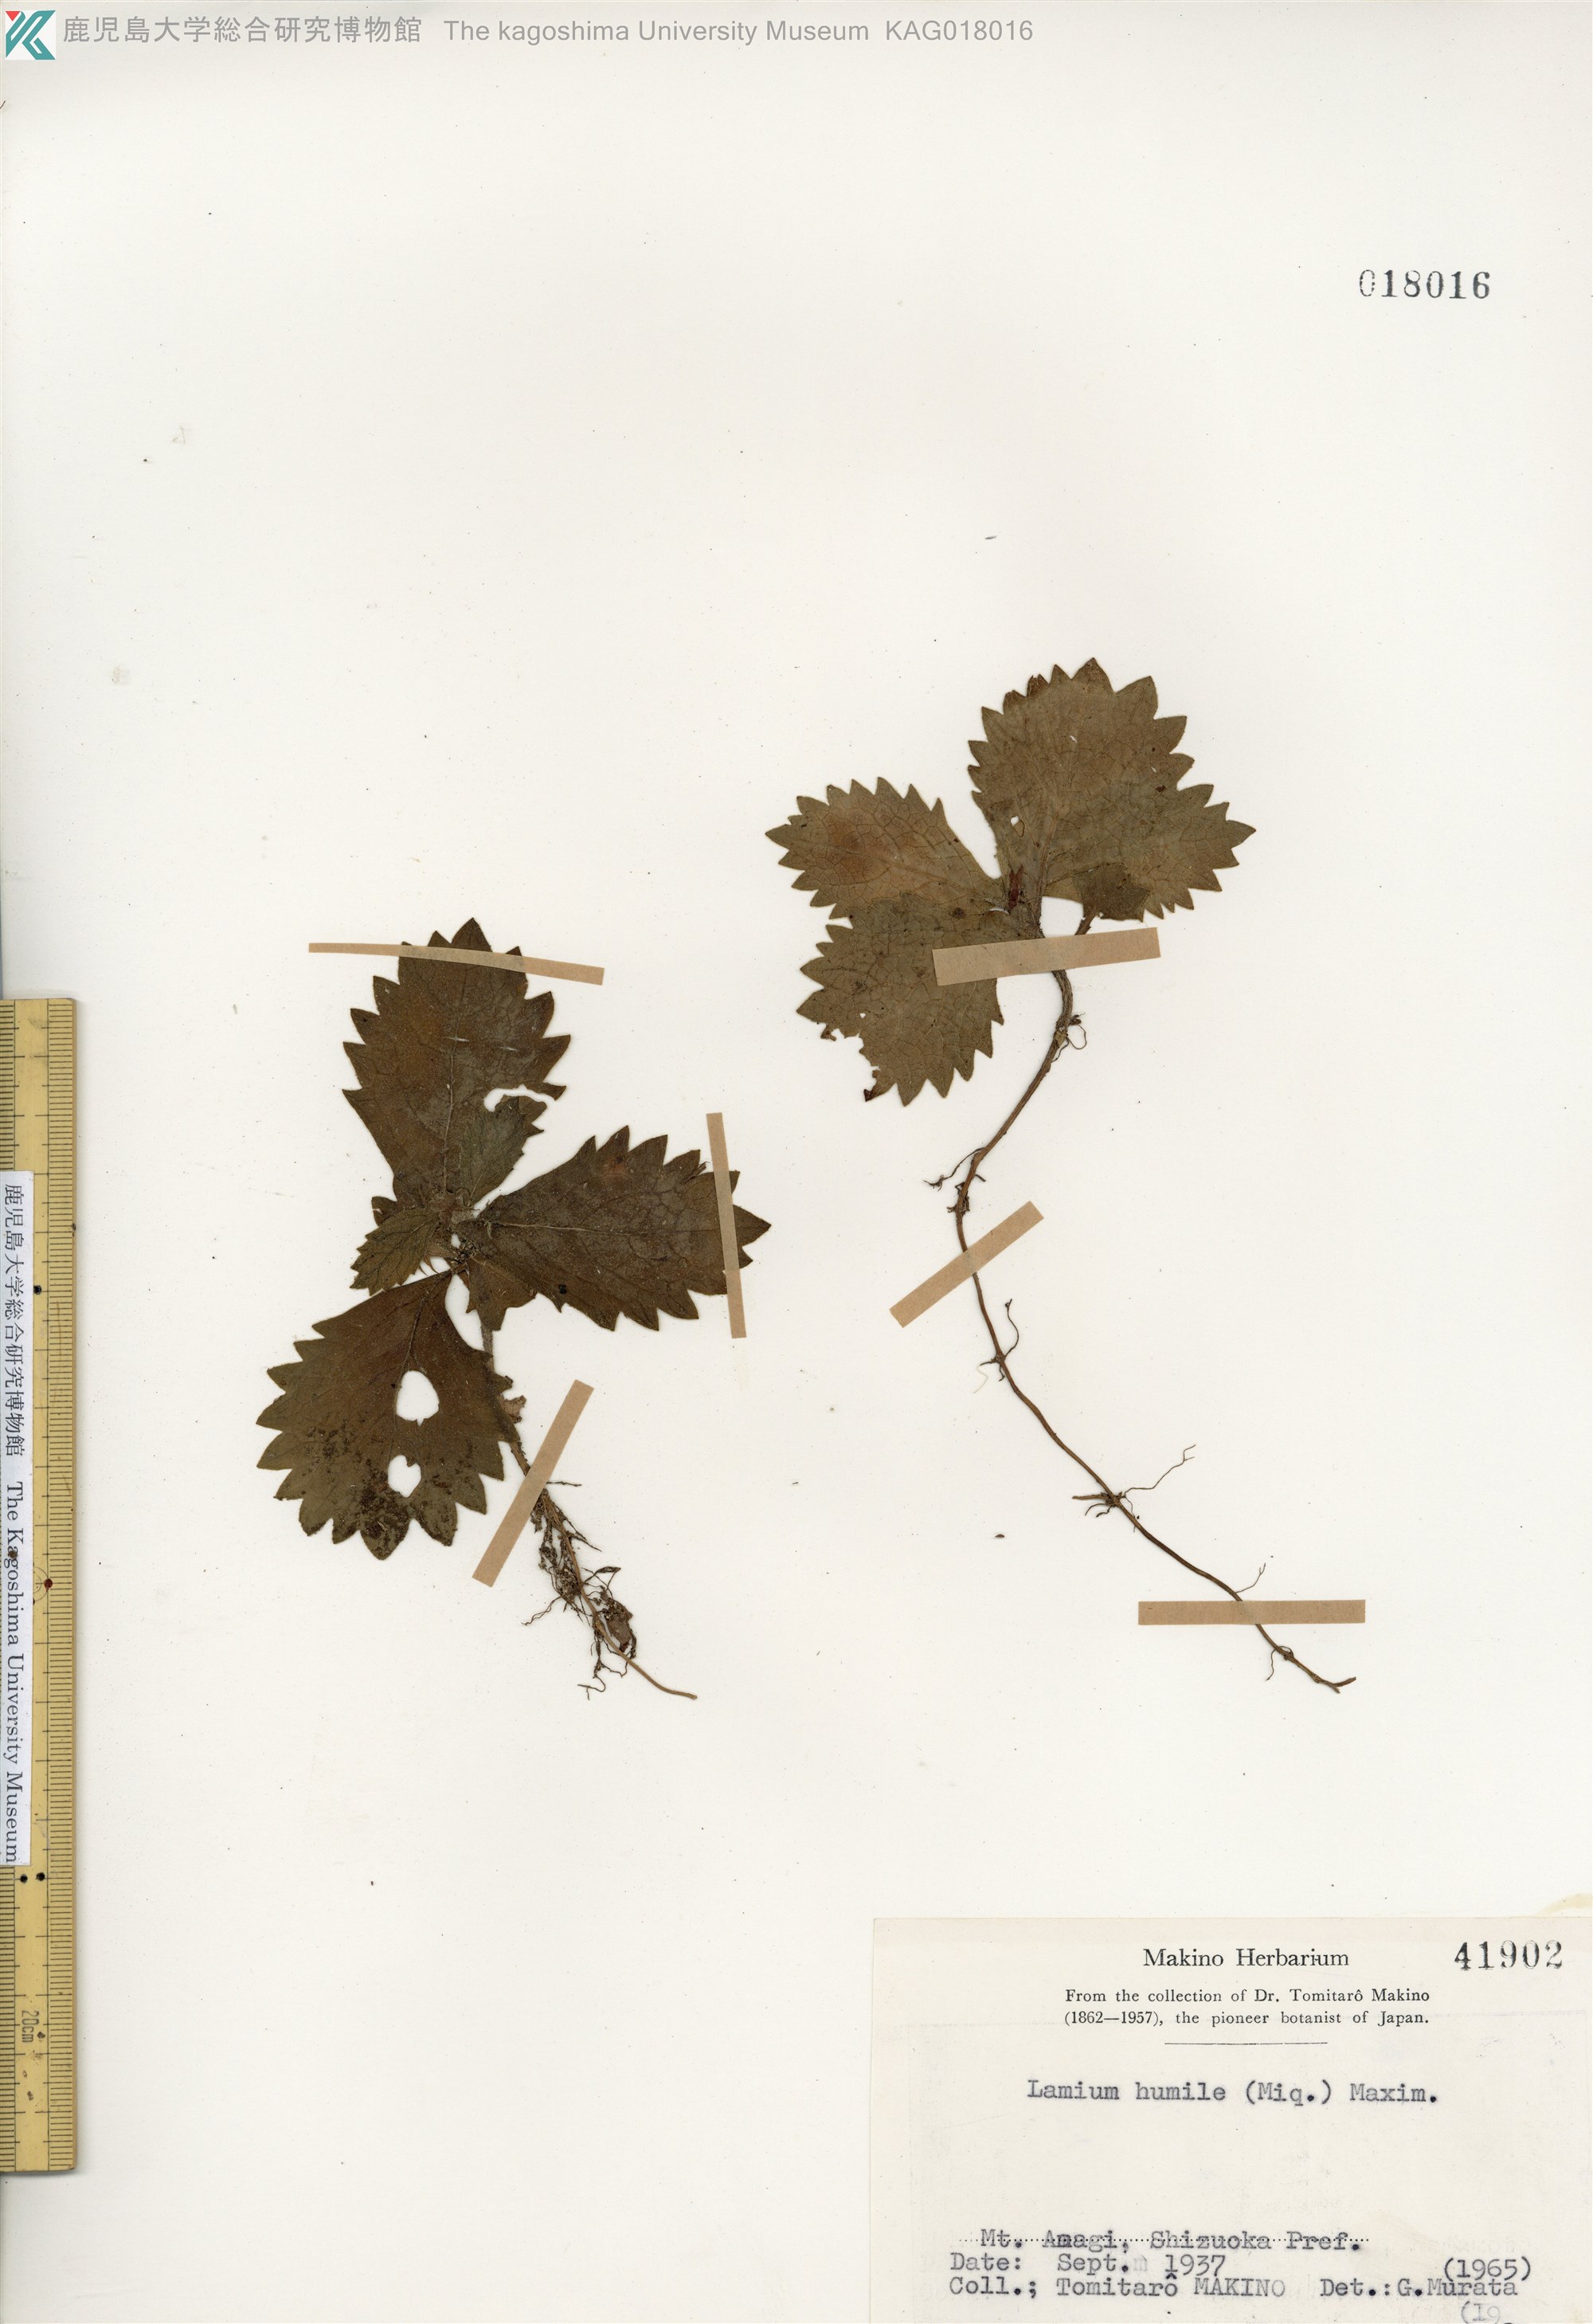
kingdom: Plantae
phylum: Tracheophyta
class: Magnoliopsida
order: Lamiales
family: Lamiaceae
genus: Ajugoides
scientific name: Ajugoides humilis
